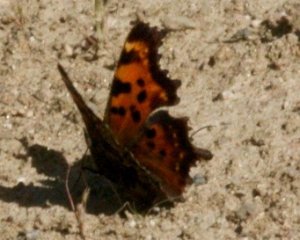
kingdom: Animalia
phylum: Arthropoda
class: Insecta
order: Lepidoptera
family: Nymphalidae
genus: Polygonia
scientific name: Polygonia faunus
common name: Green Comma
